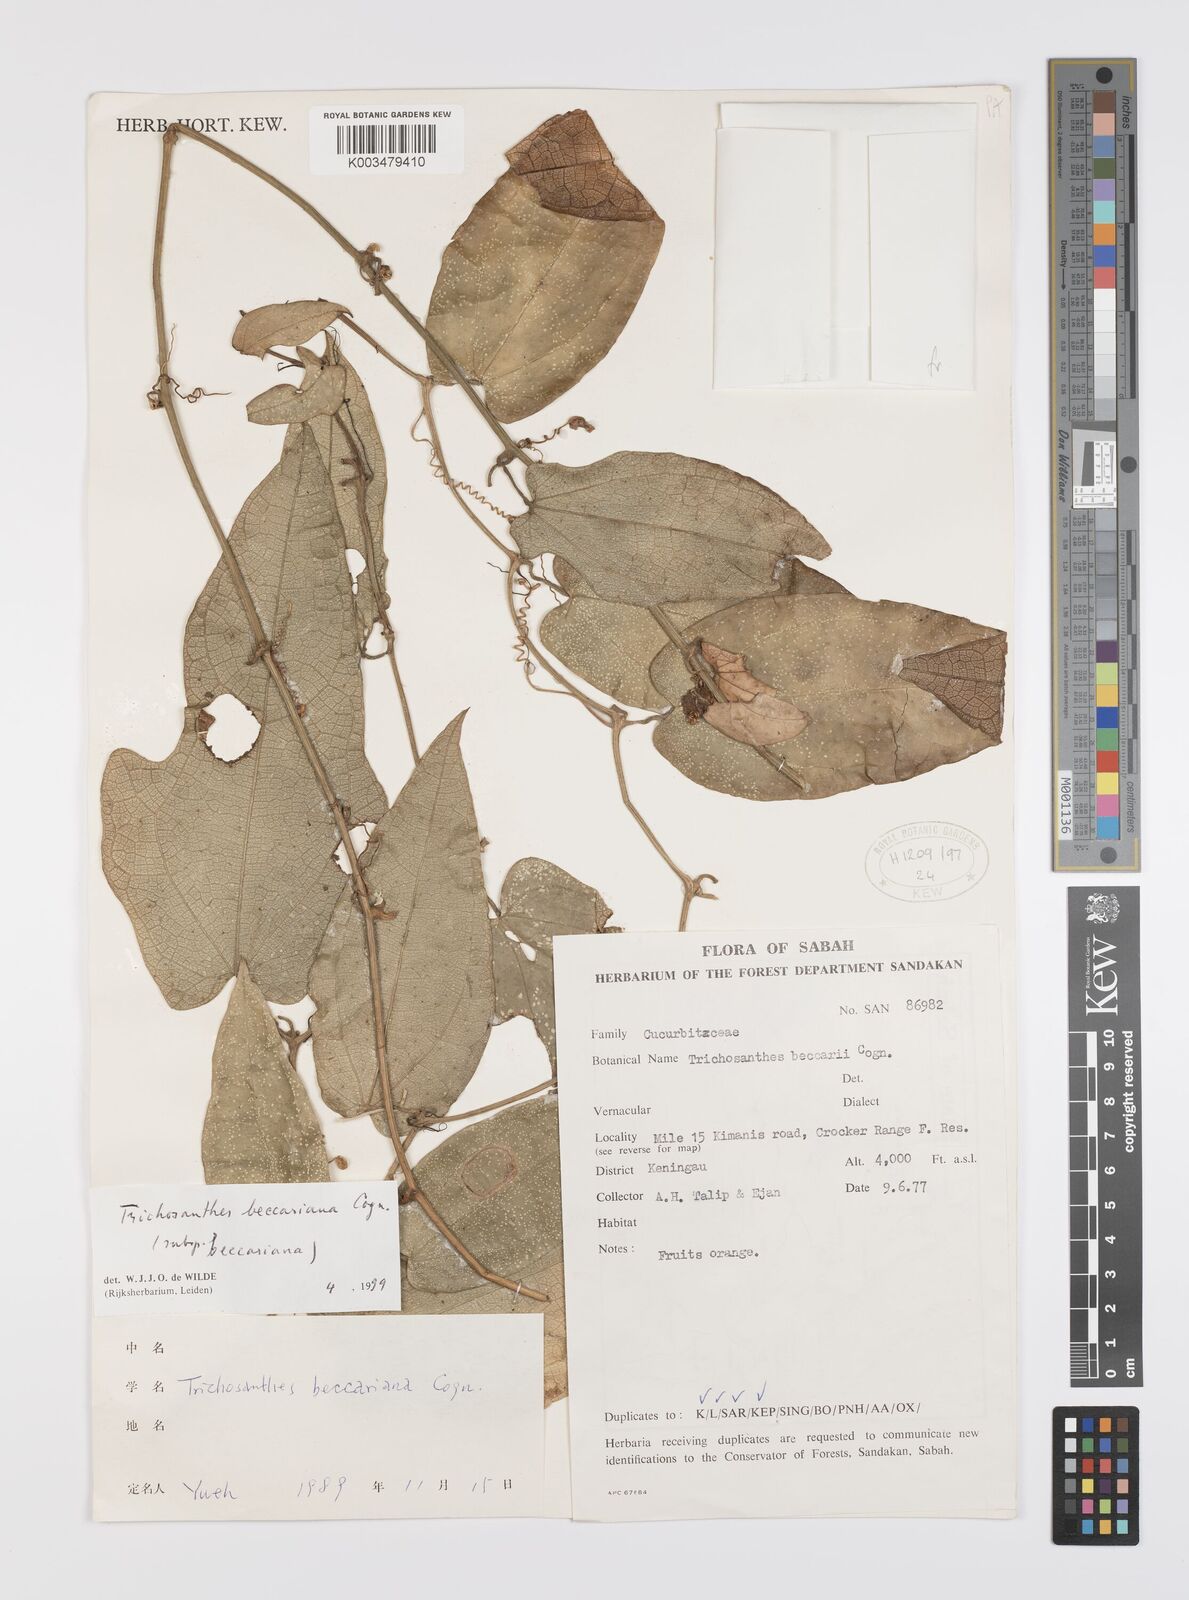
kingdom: Plantae
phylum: Tracheophyta
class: Magnoliopsida
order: Cucurbitales
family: Cucurbitaceae
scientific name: Cucurbitaceae
